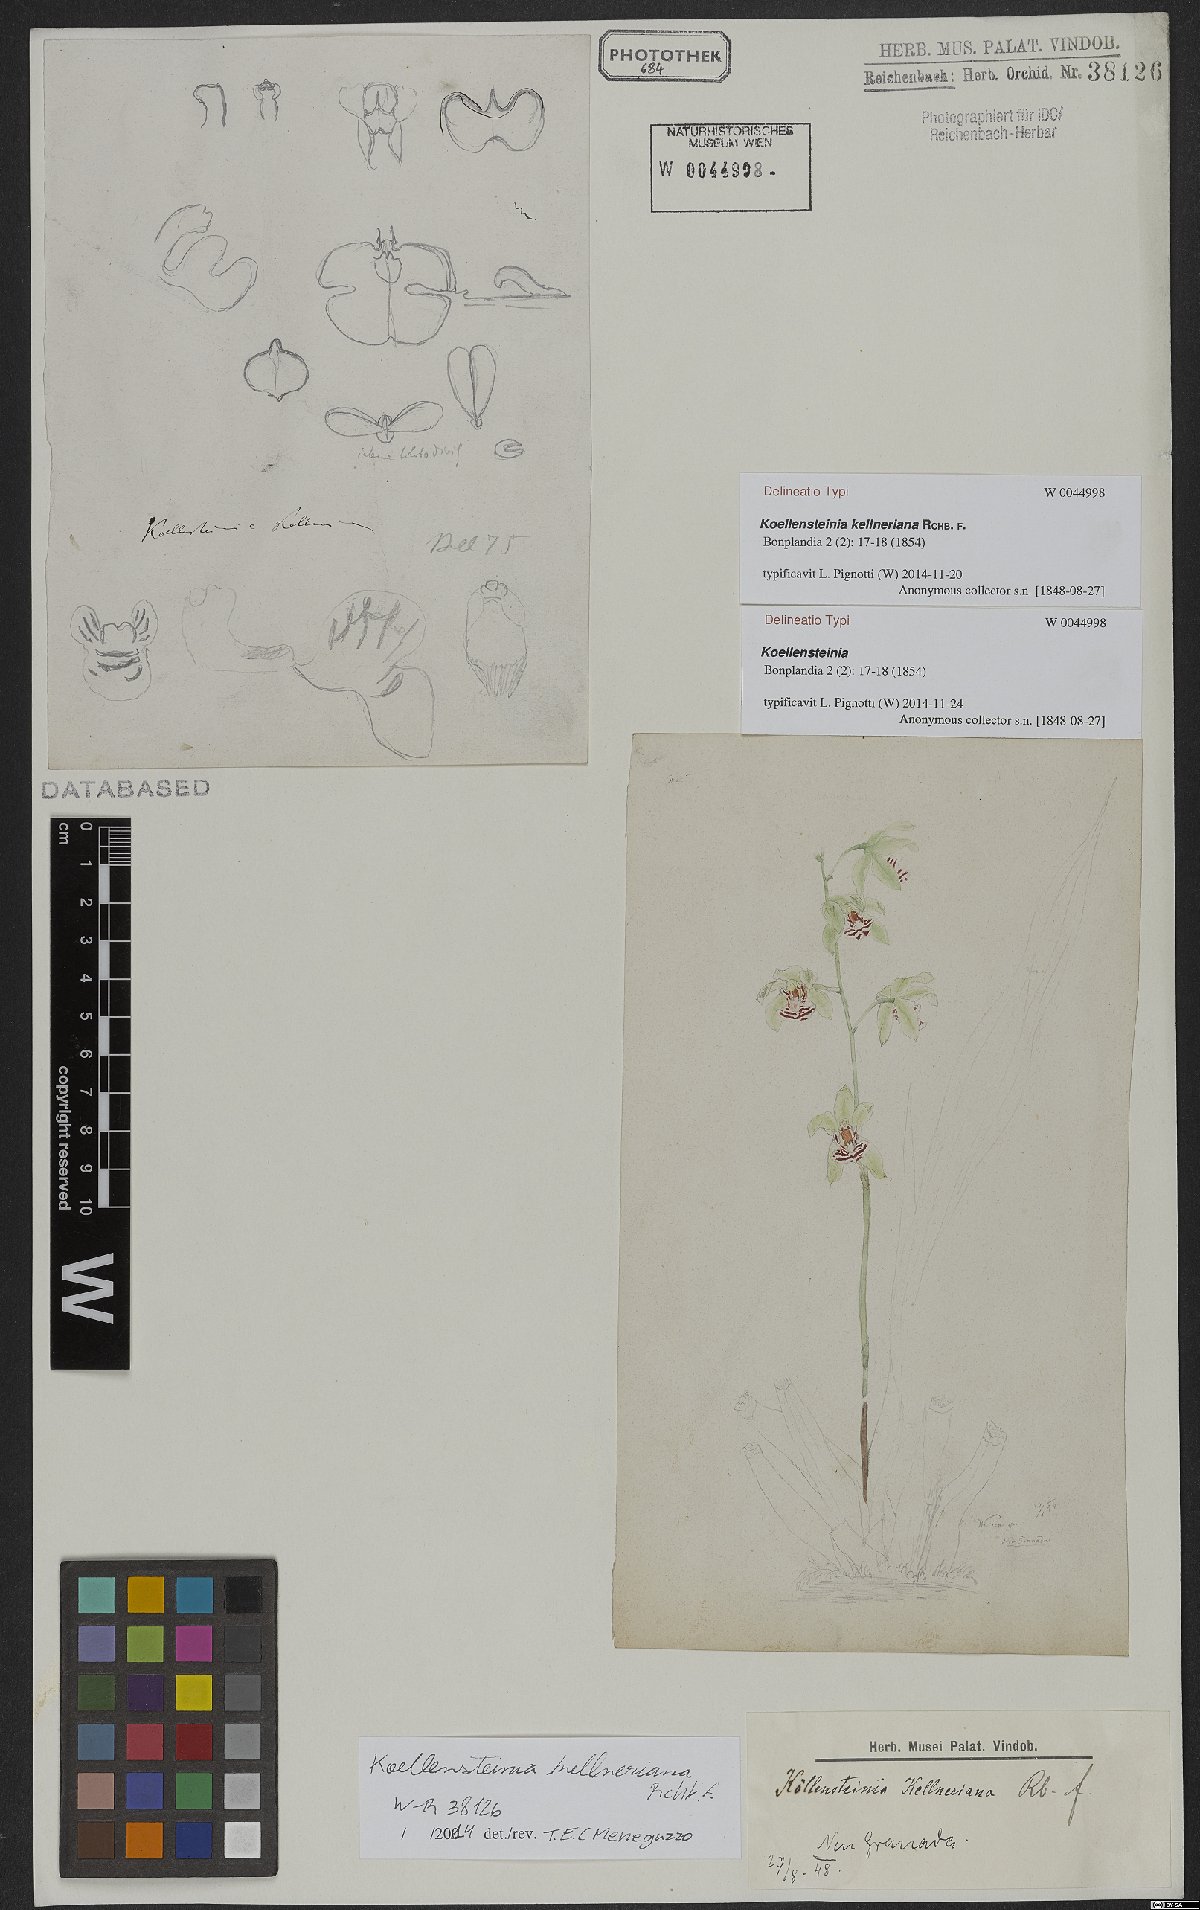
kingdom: Plantae
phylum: Tracheophyta
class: Liliopsida
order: Asparagales
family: Orchidaceae
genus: Koellensteinia
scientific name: Koellensteinia kellneriana
